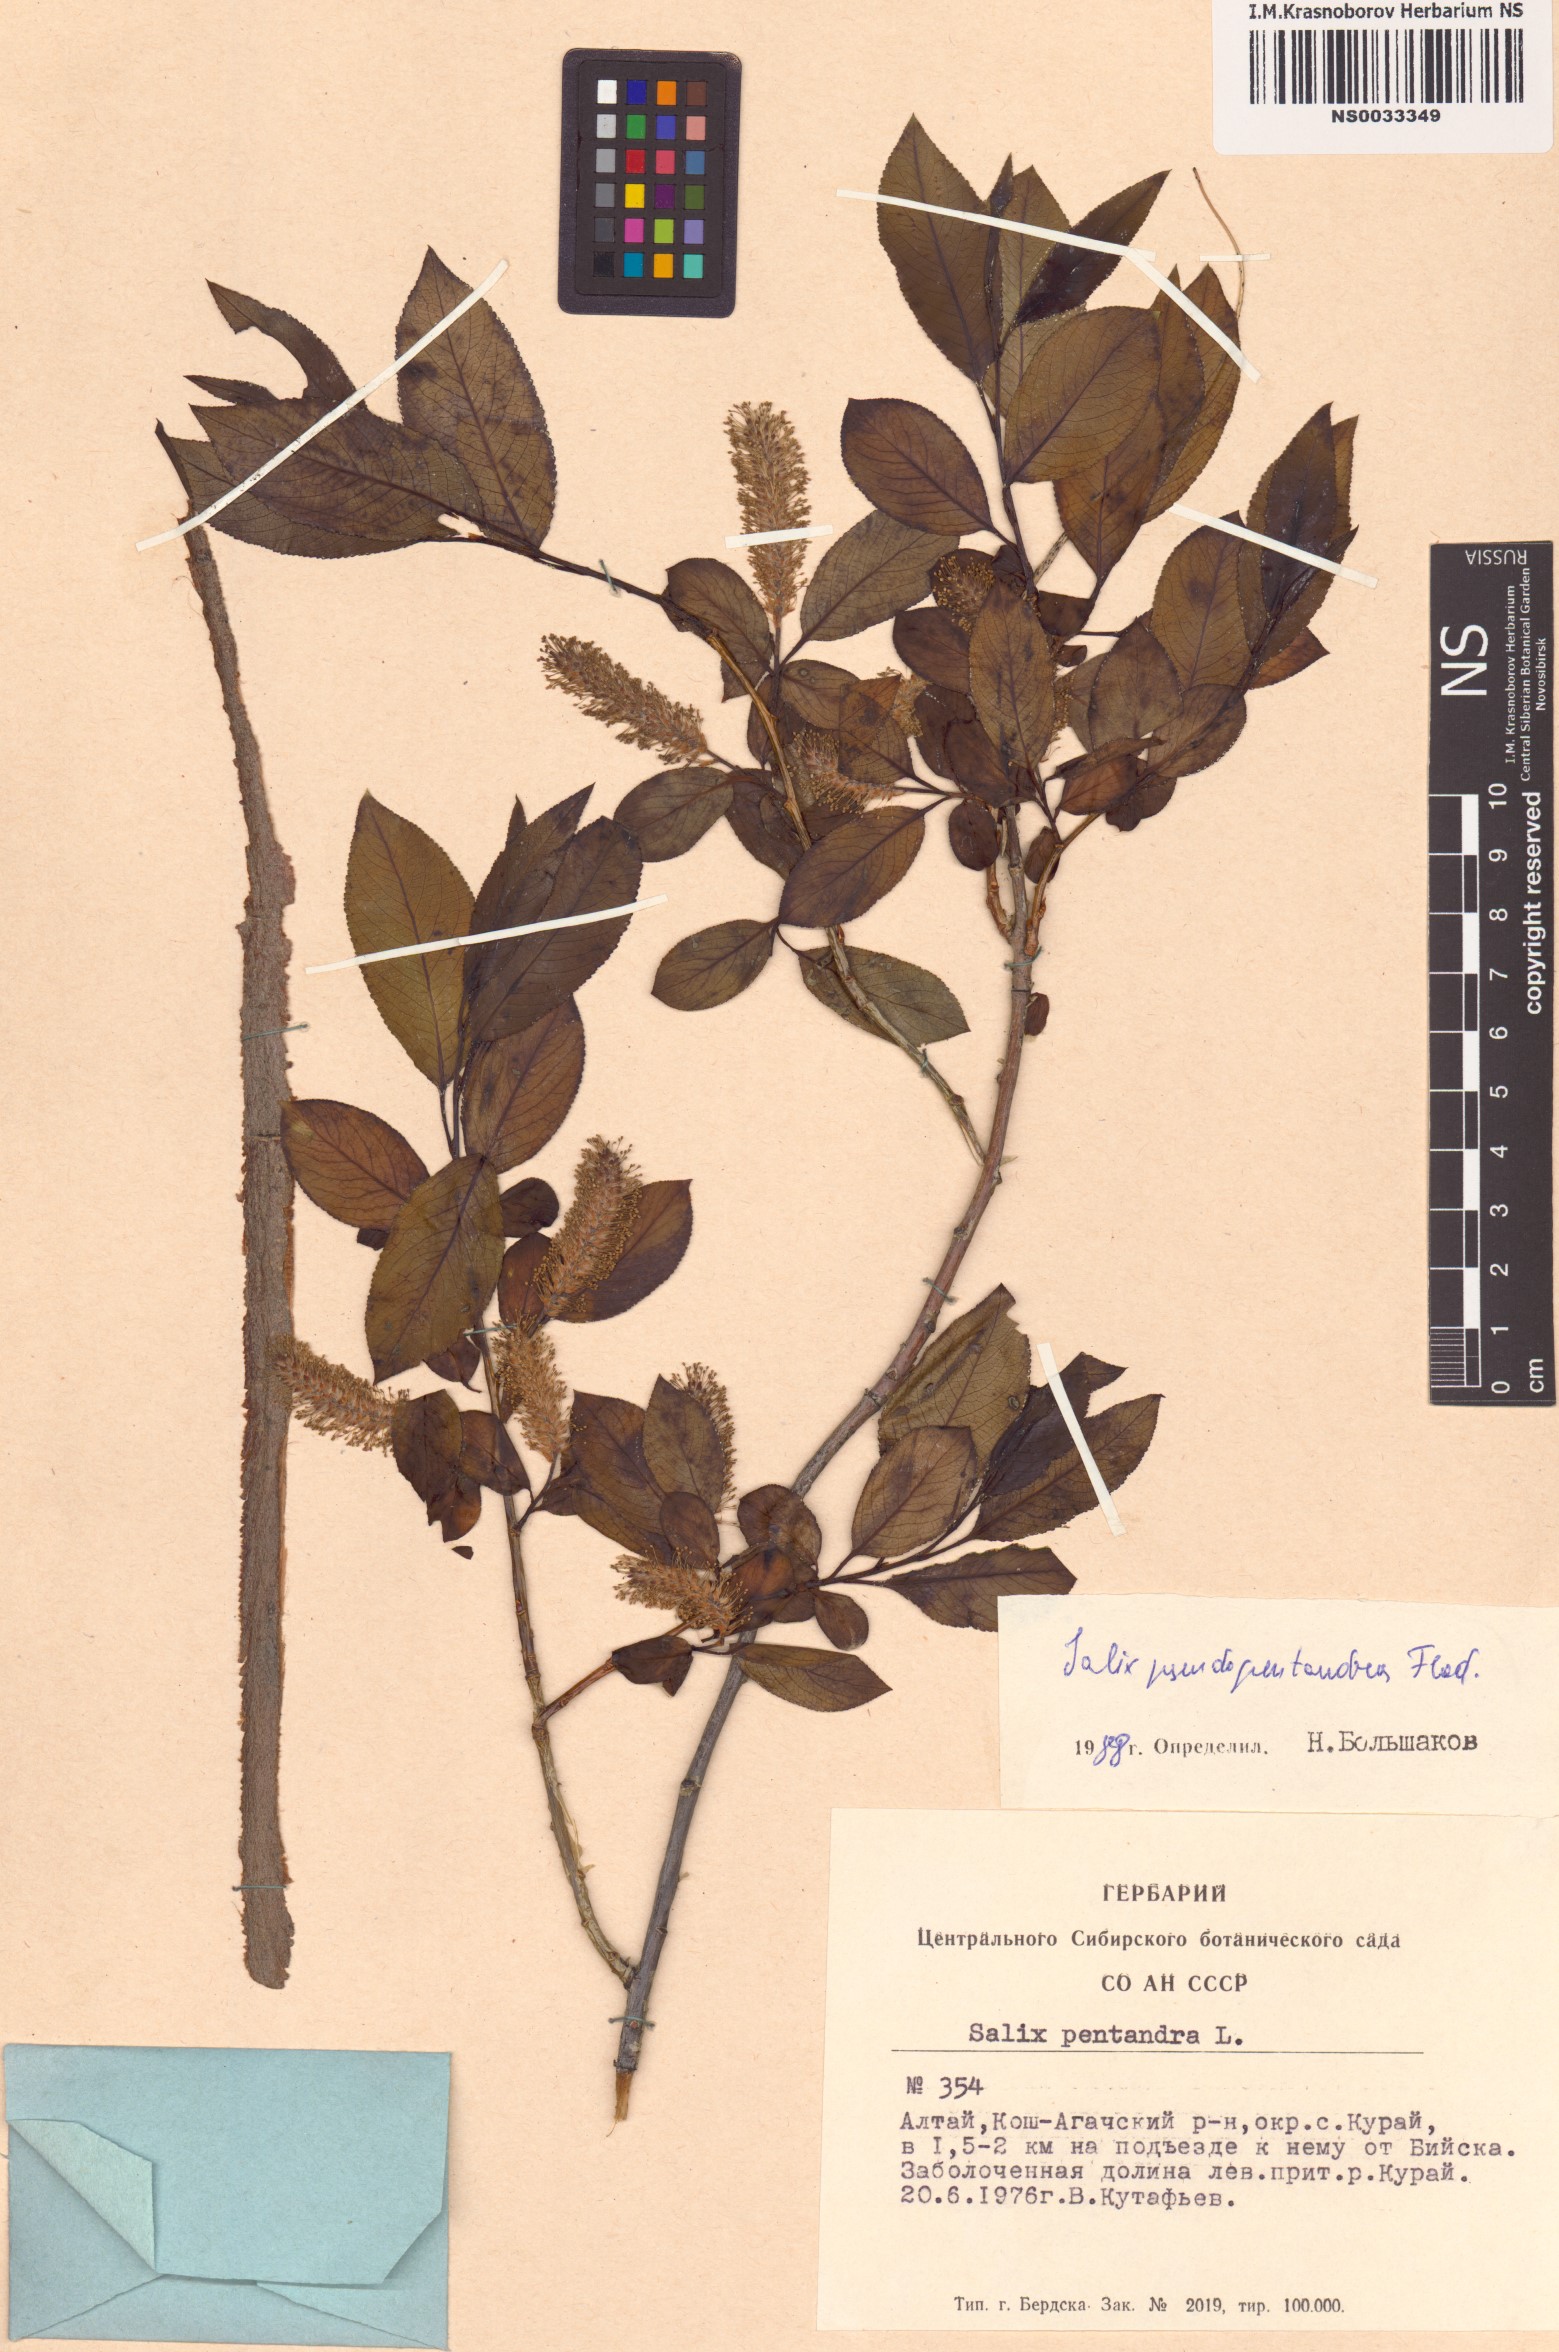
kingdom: Plantae
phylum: Tracheophyta
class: Magnoliopsida
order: Malpighiales
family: Salicaceae
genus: Salix
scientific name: Salix pseudopentandra
